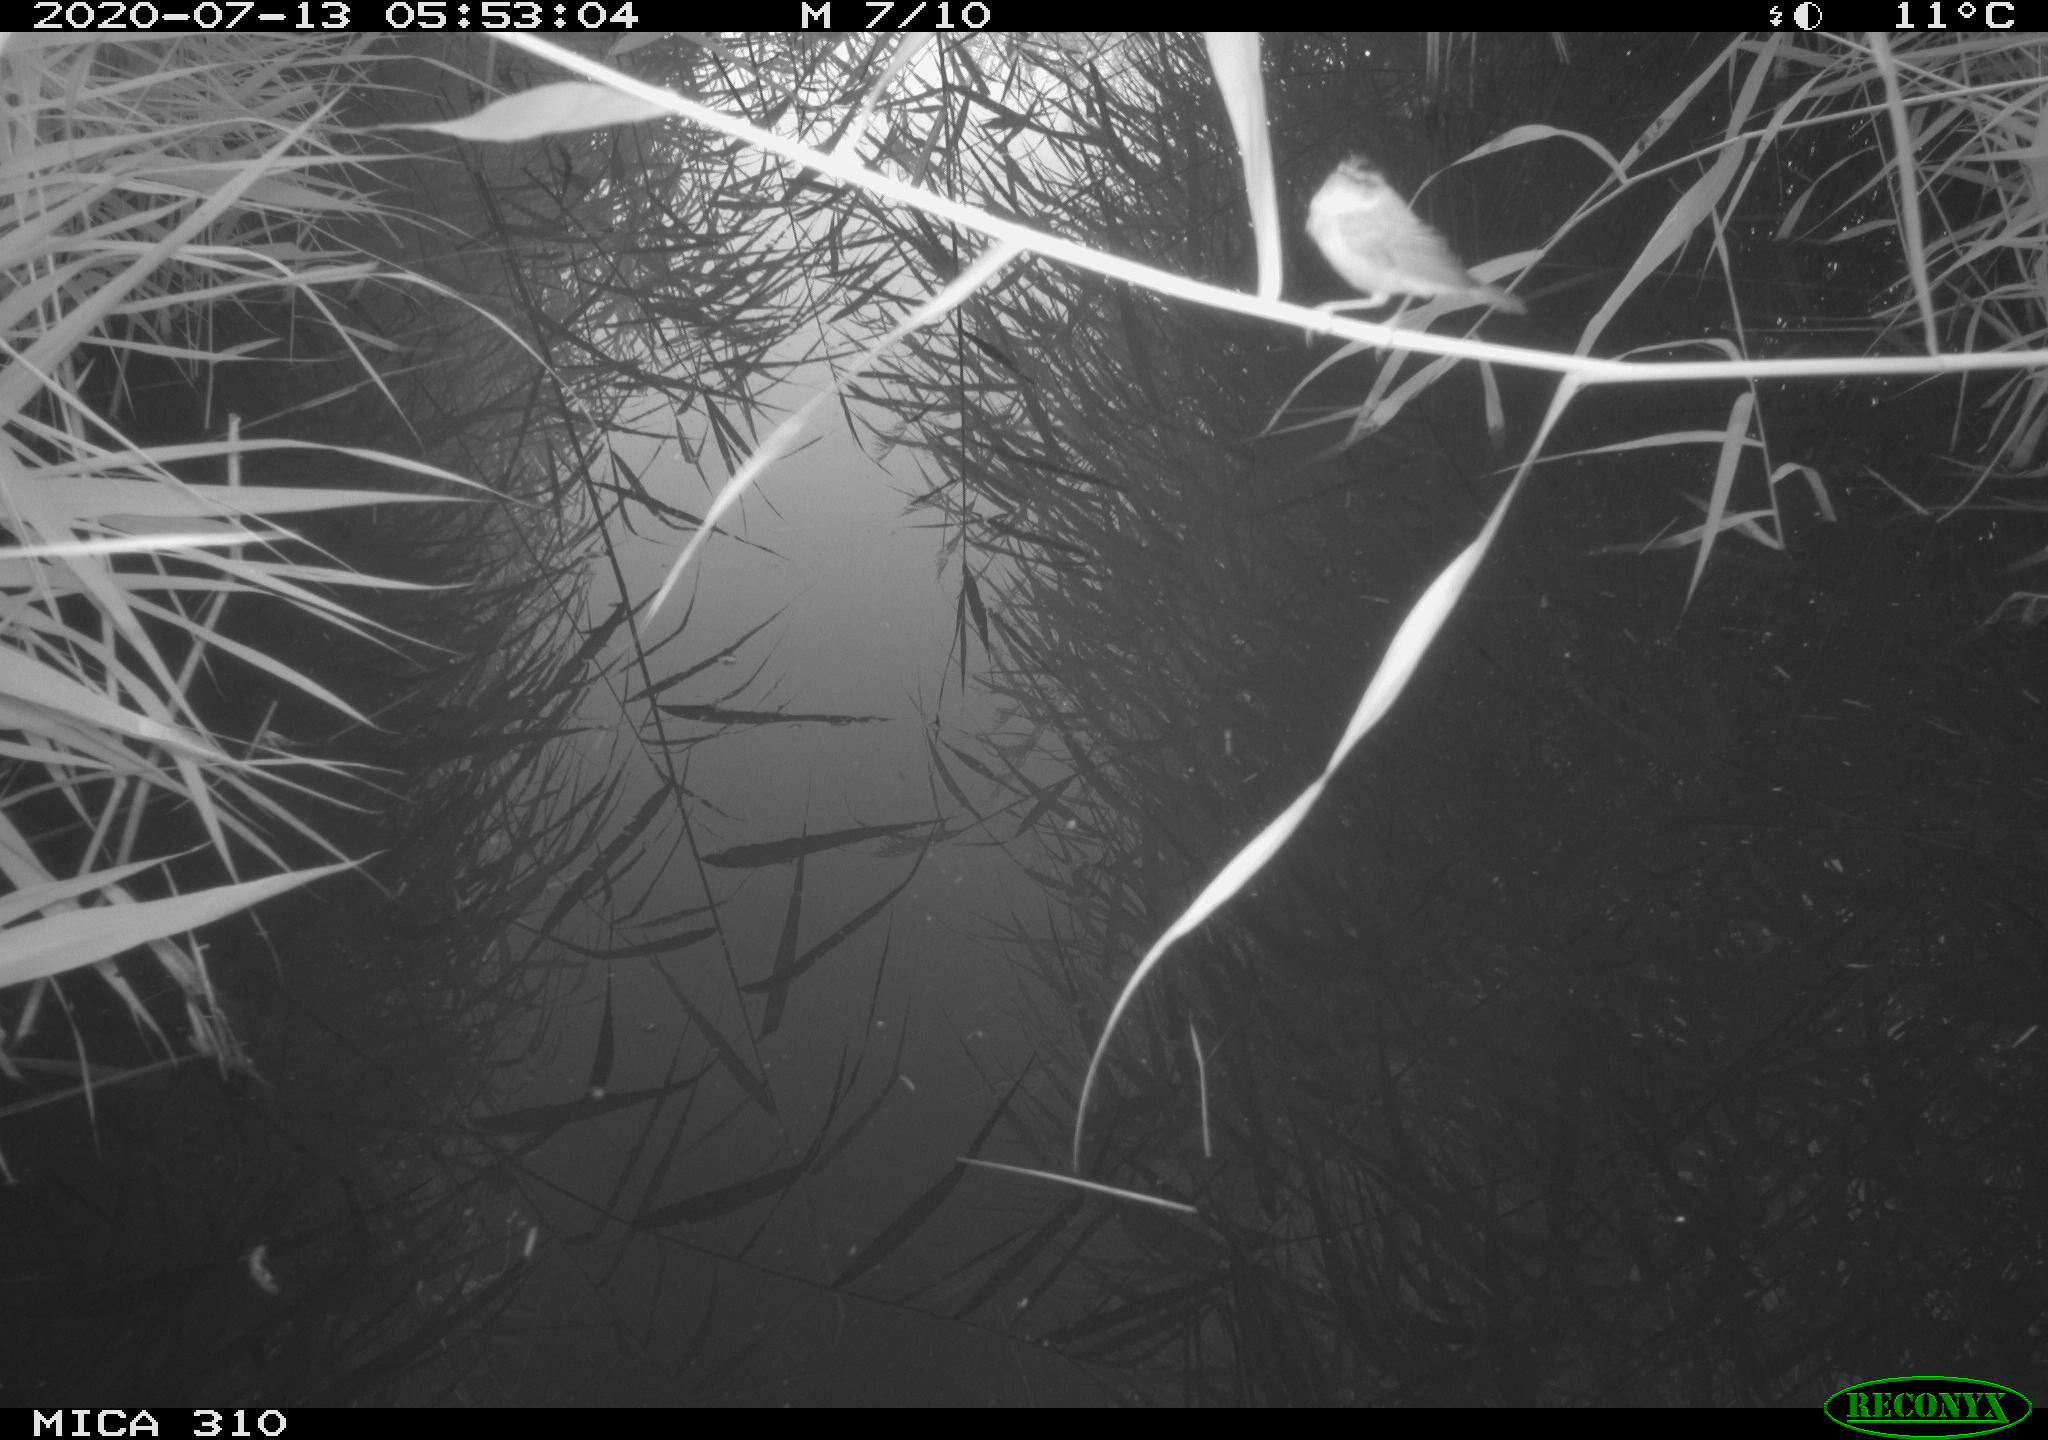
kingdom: Animalia
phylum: Chordata
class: Aves
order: Passeriformes
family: Fringillidae
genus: Fringilla
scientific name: Fringilla coelebs
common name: Common chaffinch
